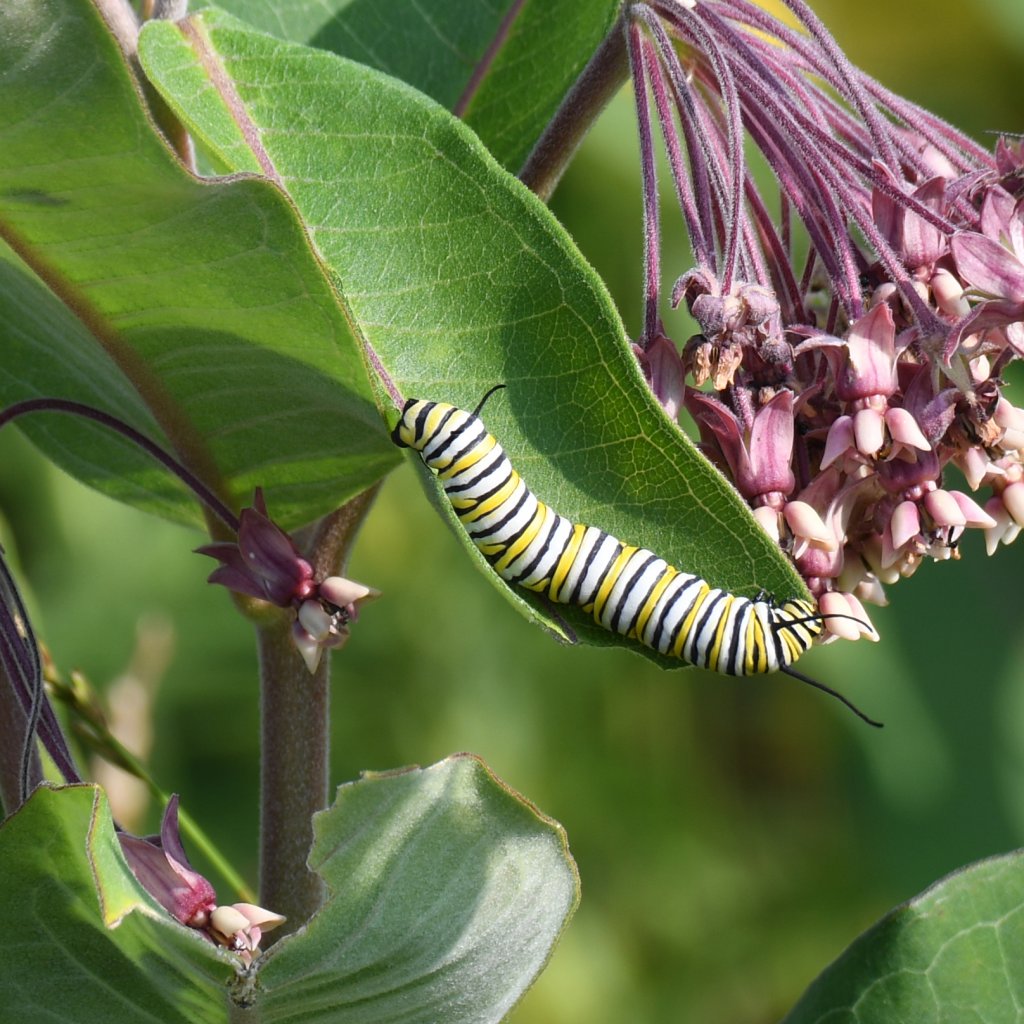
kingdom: Animalia
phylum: Arthropoda
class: Insecta
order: Lepidoptera
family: Nymphalidae
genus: Danaus
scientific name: Danaus plexippus
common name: Monarch
